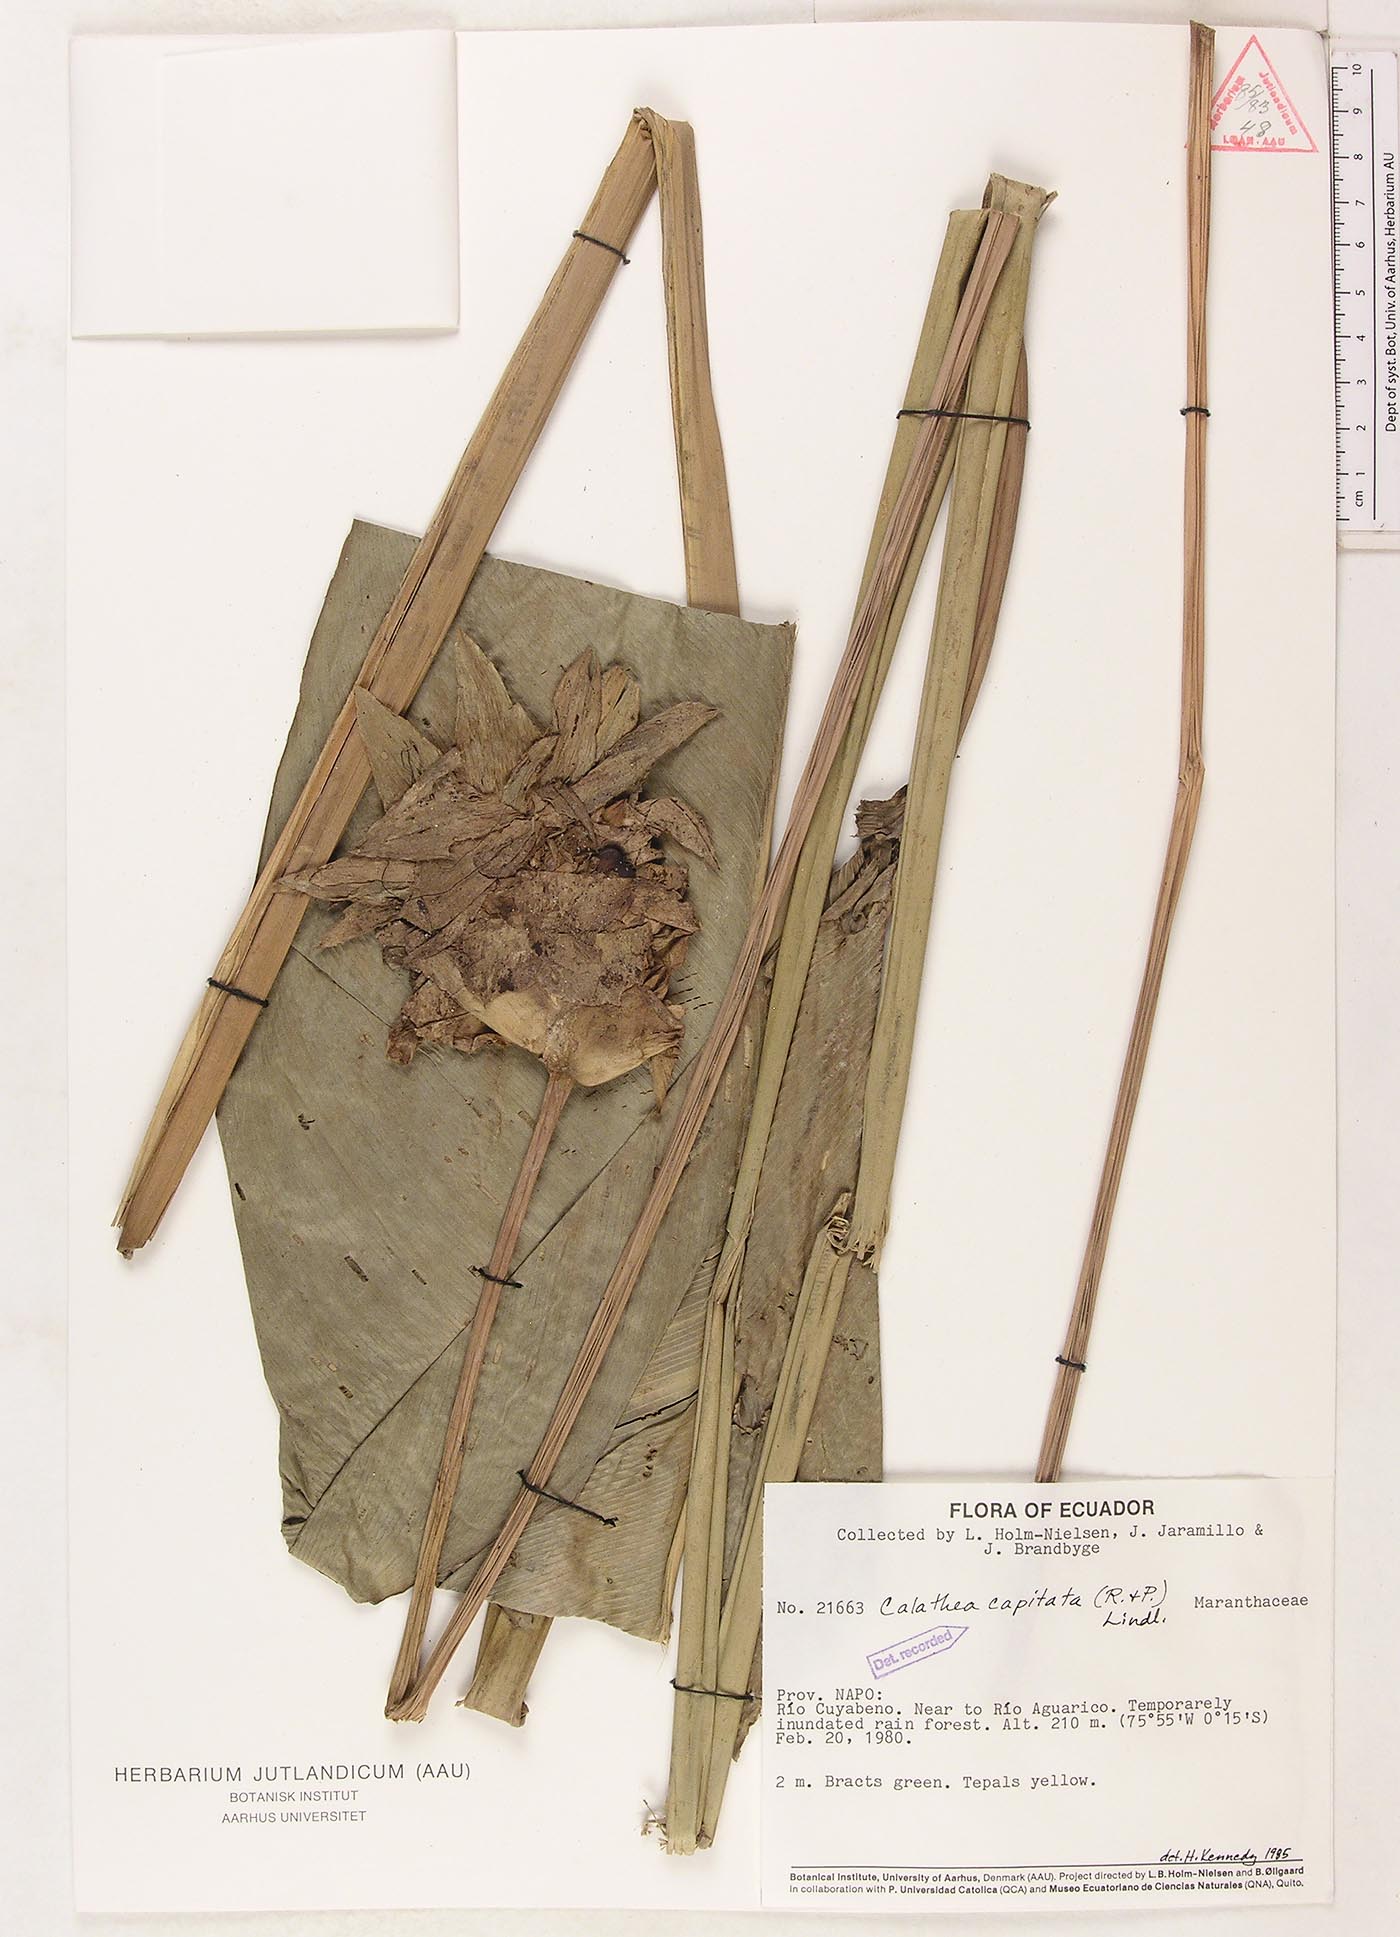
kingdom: Plantae
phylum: Tracheophyta
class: Liliopsida
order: Zingiberales
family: Marantaceae
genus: Goeppertia
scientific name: Goeppertia capitata
